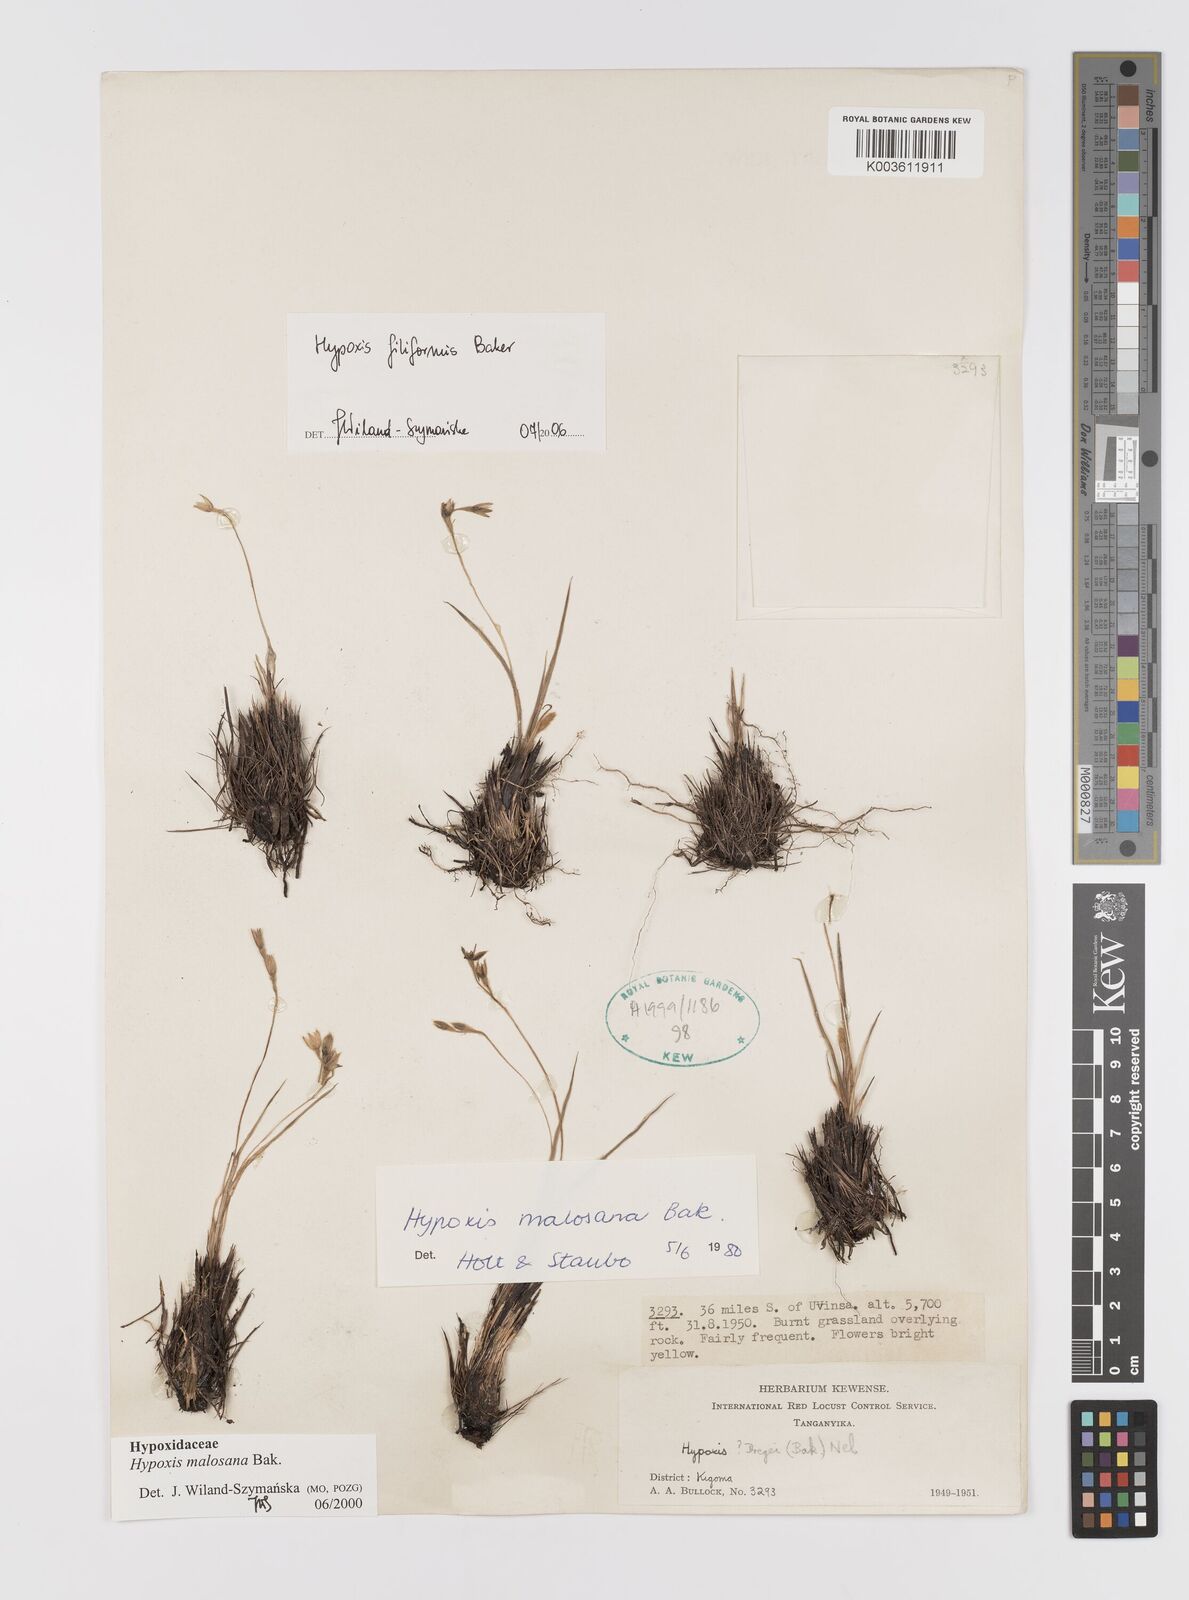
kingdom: Plantae
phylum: Tracheophyta
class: Liliopsida
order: Asparagales
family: Hypoxidaceae
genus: Hypoxis
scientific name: Hypoxis filiformis
